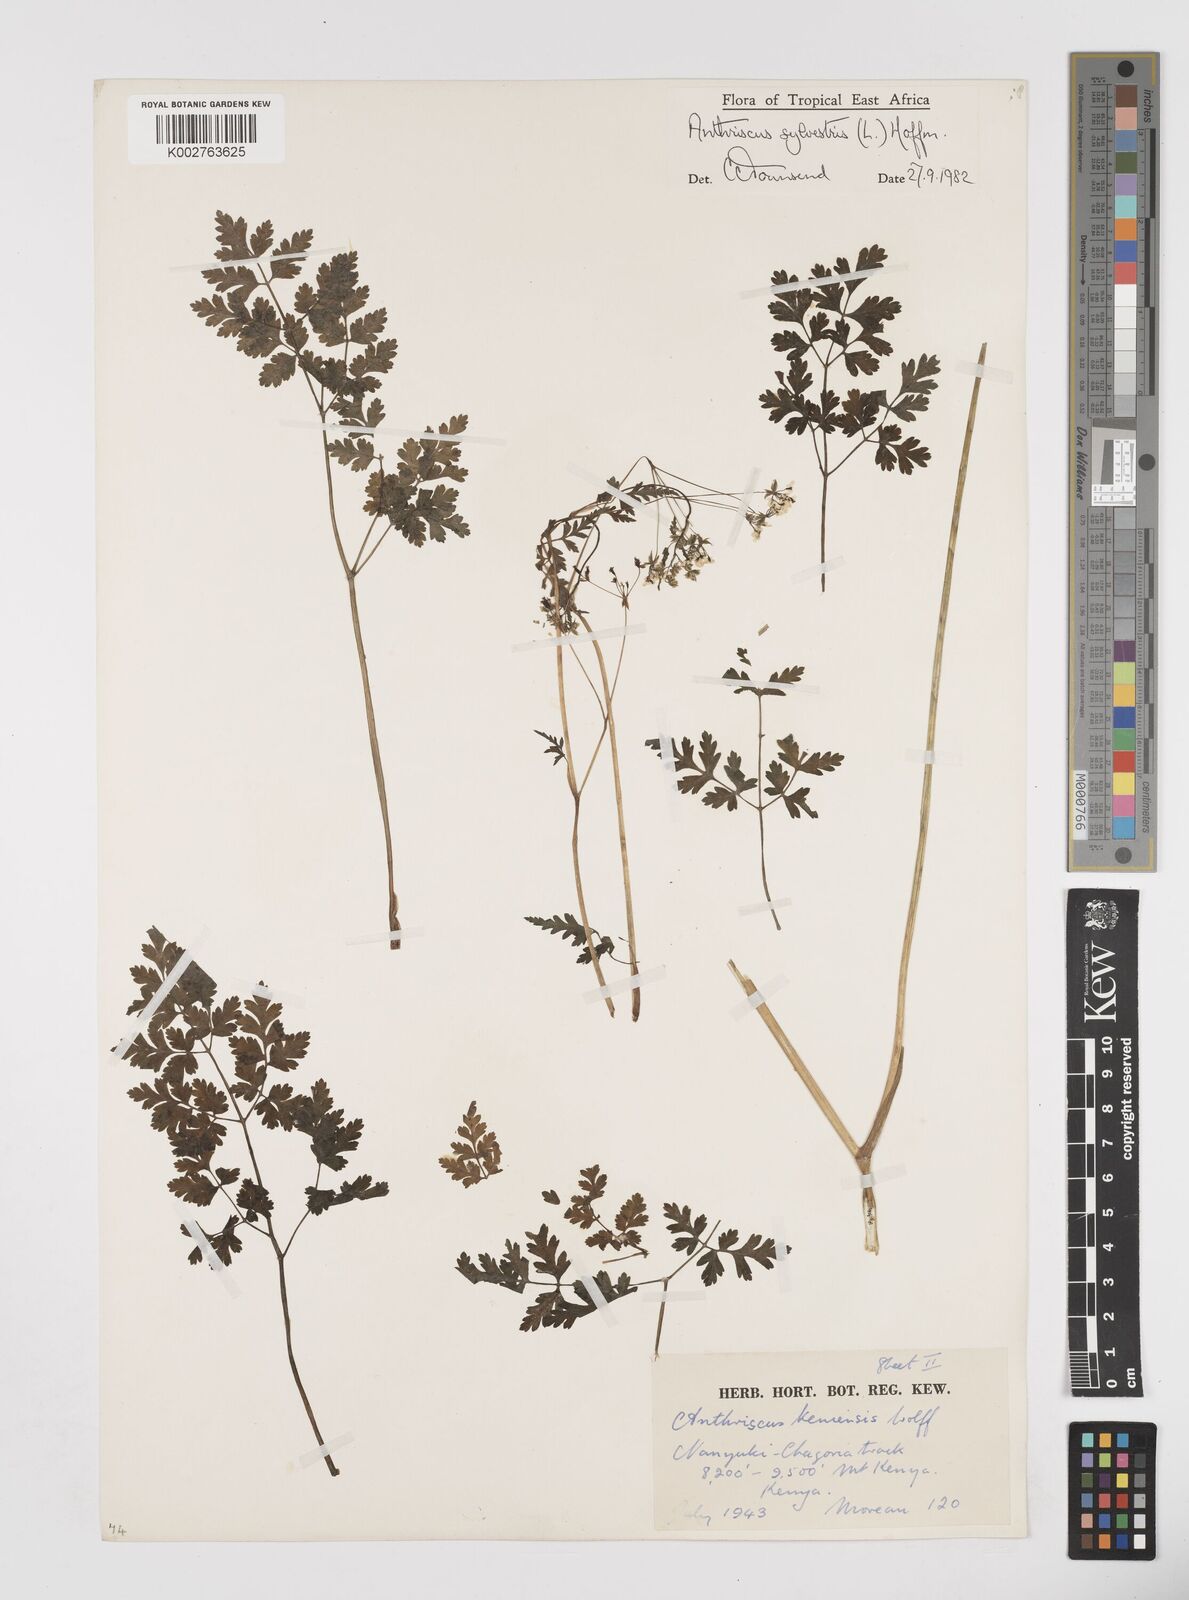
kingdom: Plantae
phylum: Tracheophyta
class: Magnoliopsida
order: Apiales
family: Apiaceae
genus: Anthriscus
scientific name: Anthriscus sylvestris
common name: Cow parsley
